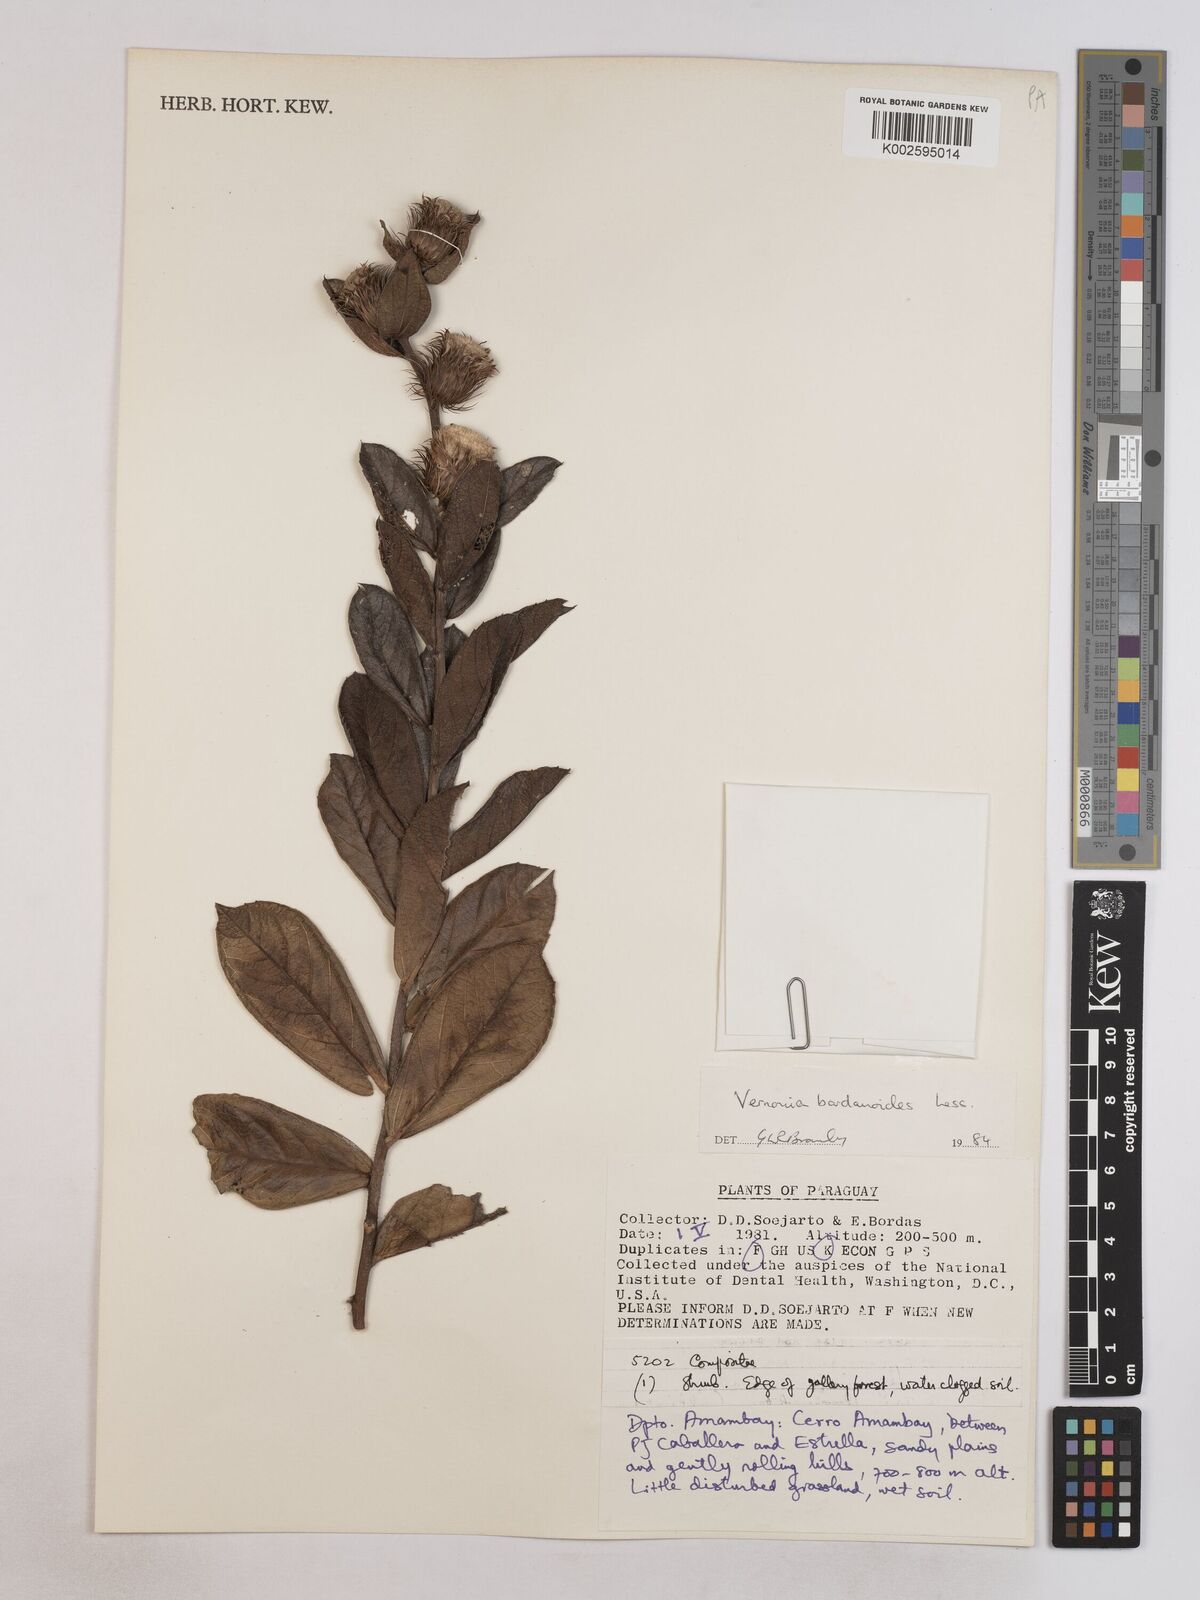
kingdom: Plantae
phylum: Tracheophyta
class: Magnoliopsida
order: Asterales
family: Asteraceae
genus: Lessingianthus
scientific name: Lessingianthus bardanioides
